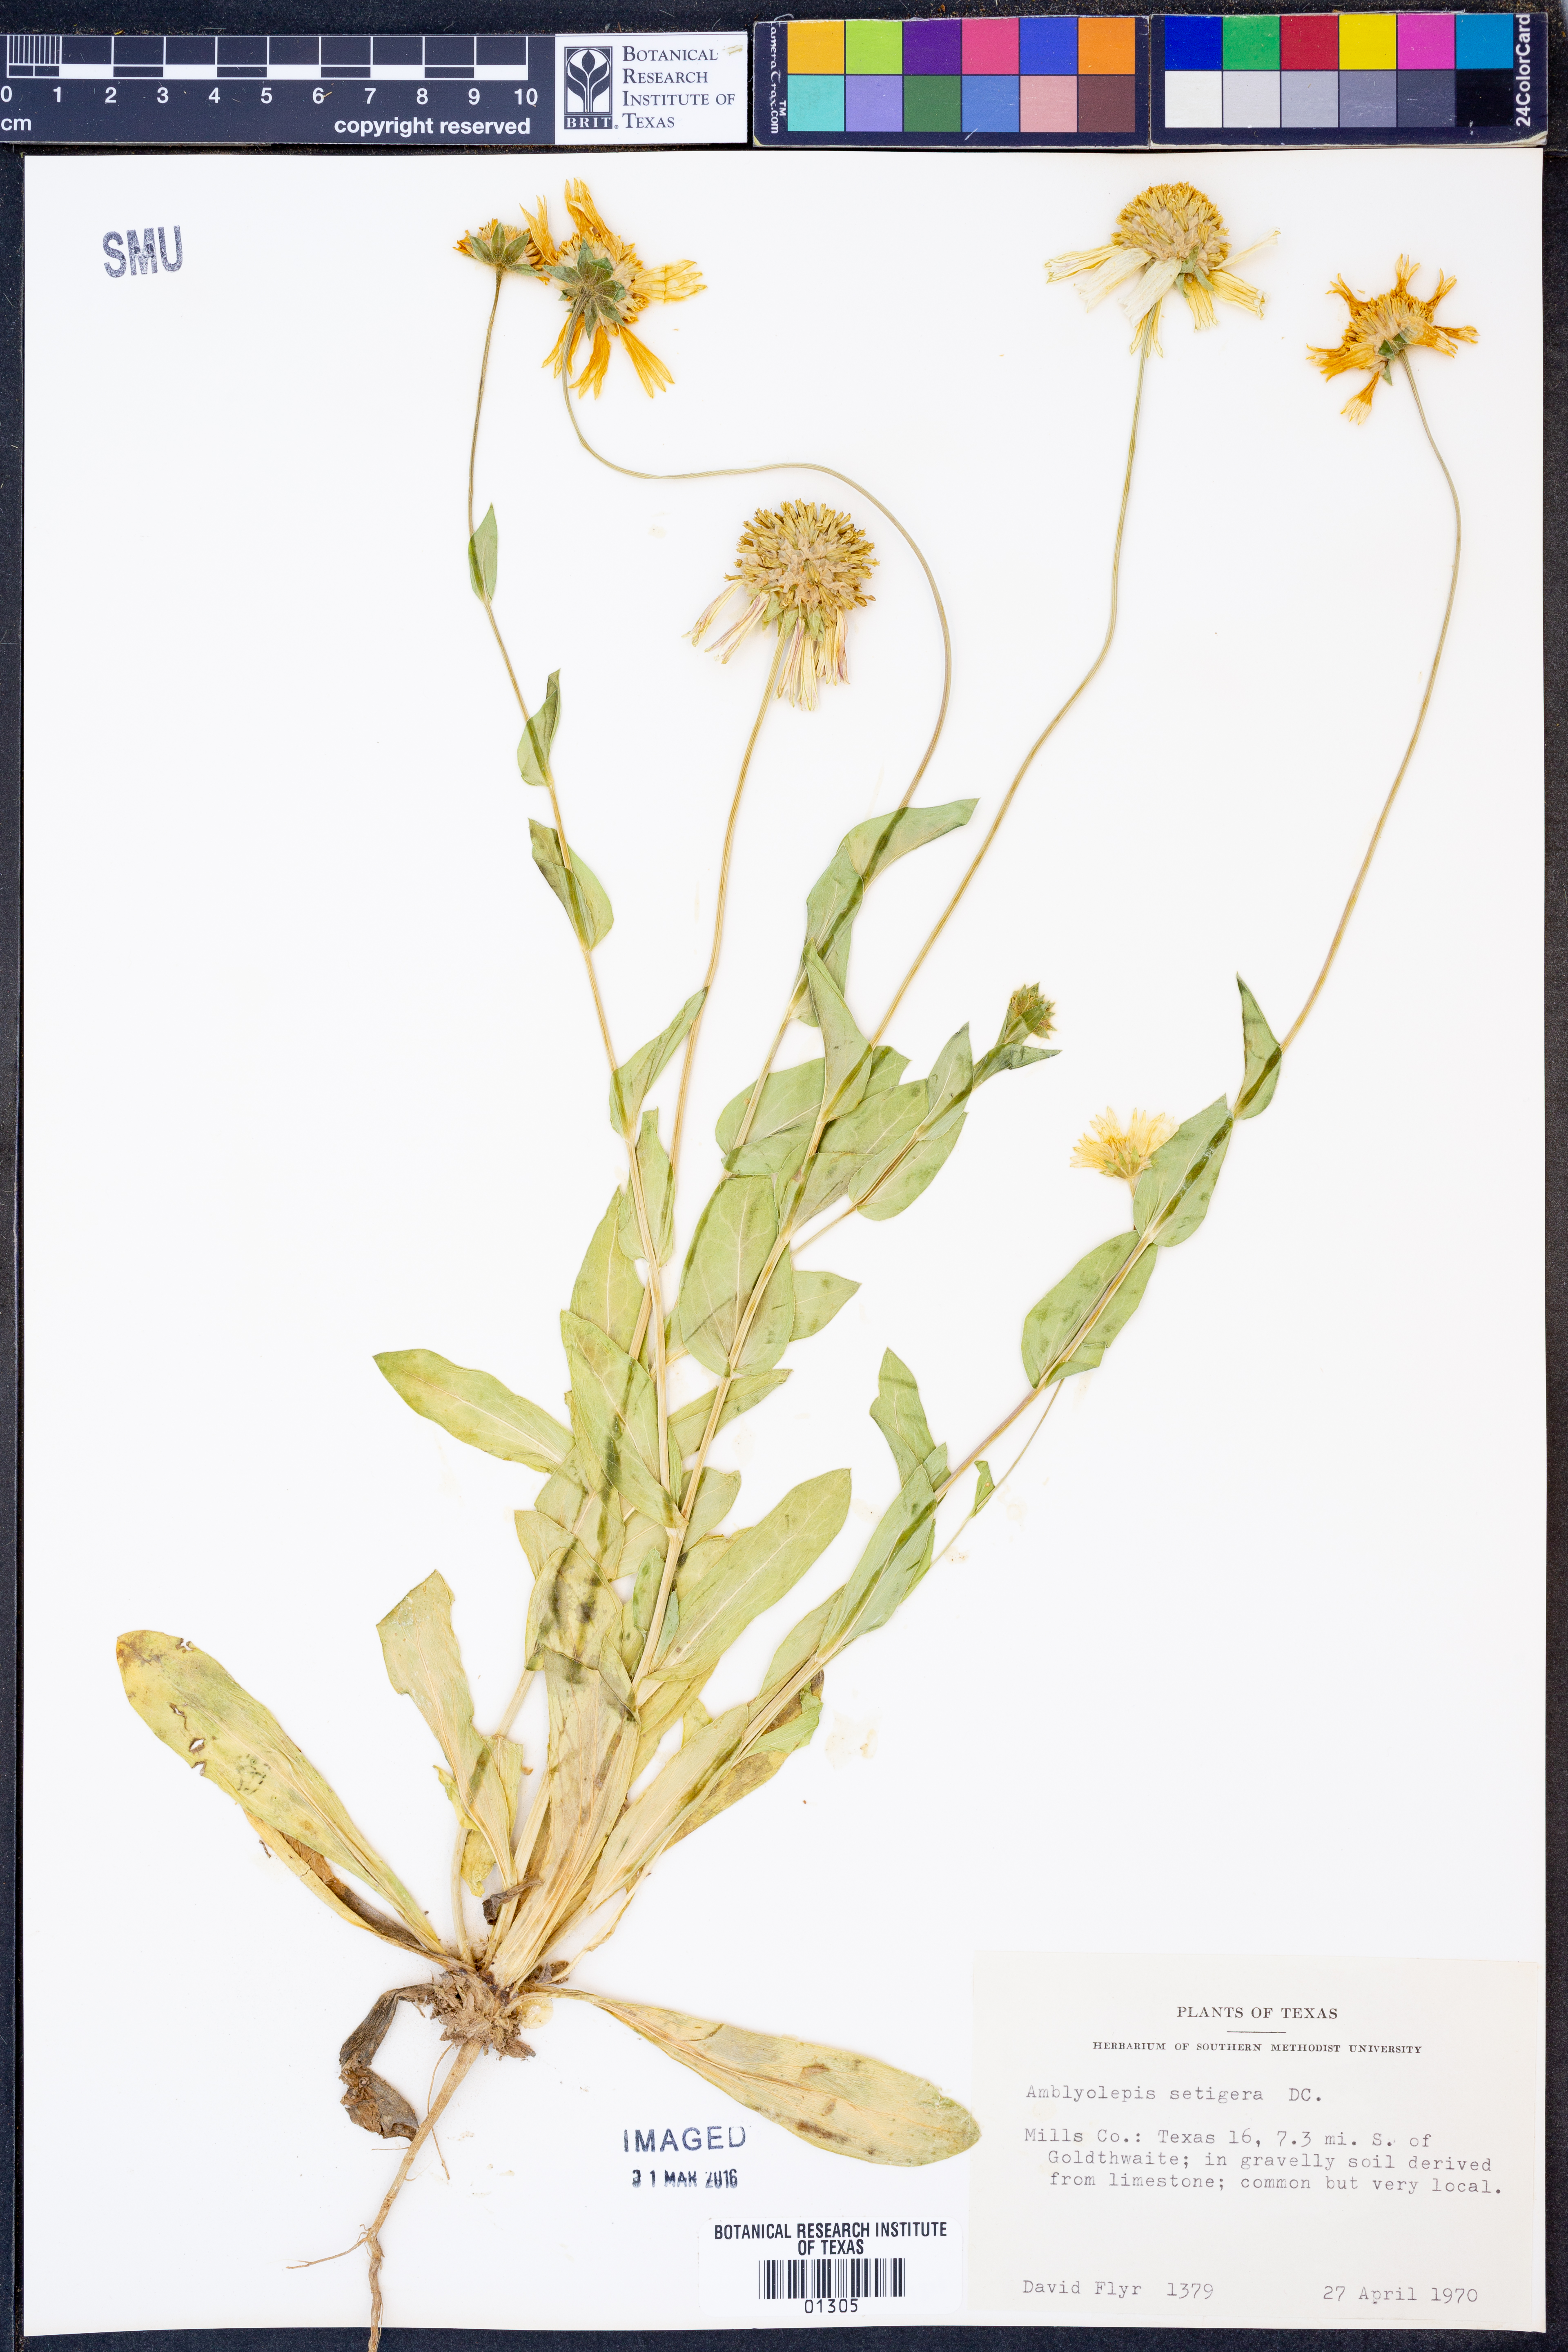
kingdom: Plantae
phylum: Tracheophyta
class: Magnoliopsida
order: Asterales
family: Asteraceae
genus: Amblyolepis
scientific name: Amblyolepis setigera
